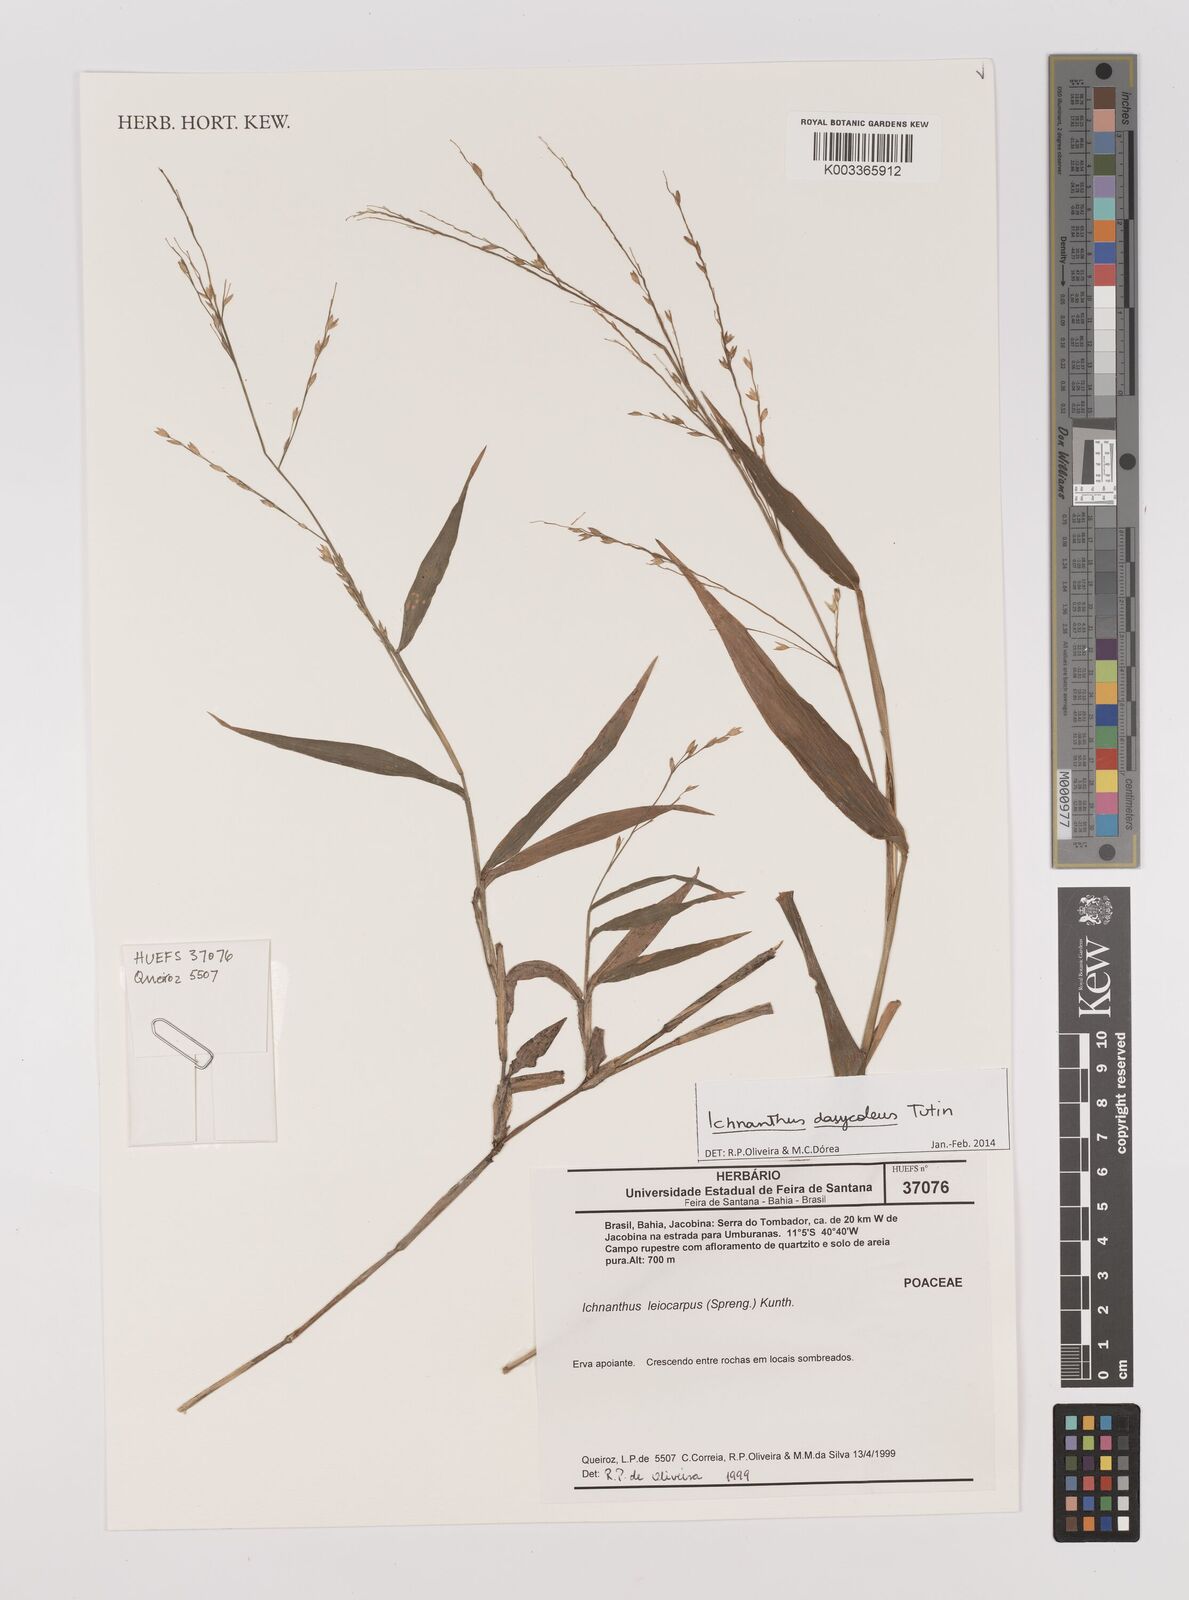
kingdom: Plantae
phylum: Tracheophyta
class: Liliopsida
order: Poales
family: Poaceae
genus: Ichnanthus
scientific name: Ichnanthus dasycoleus
